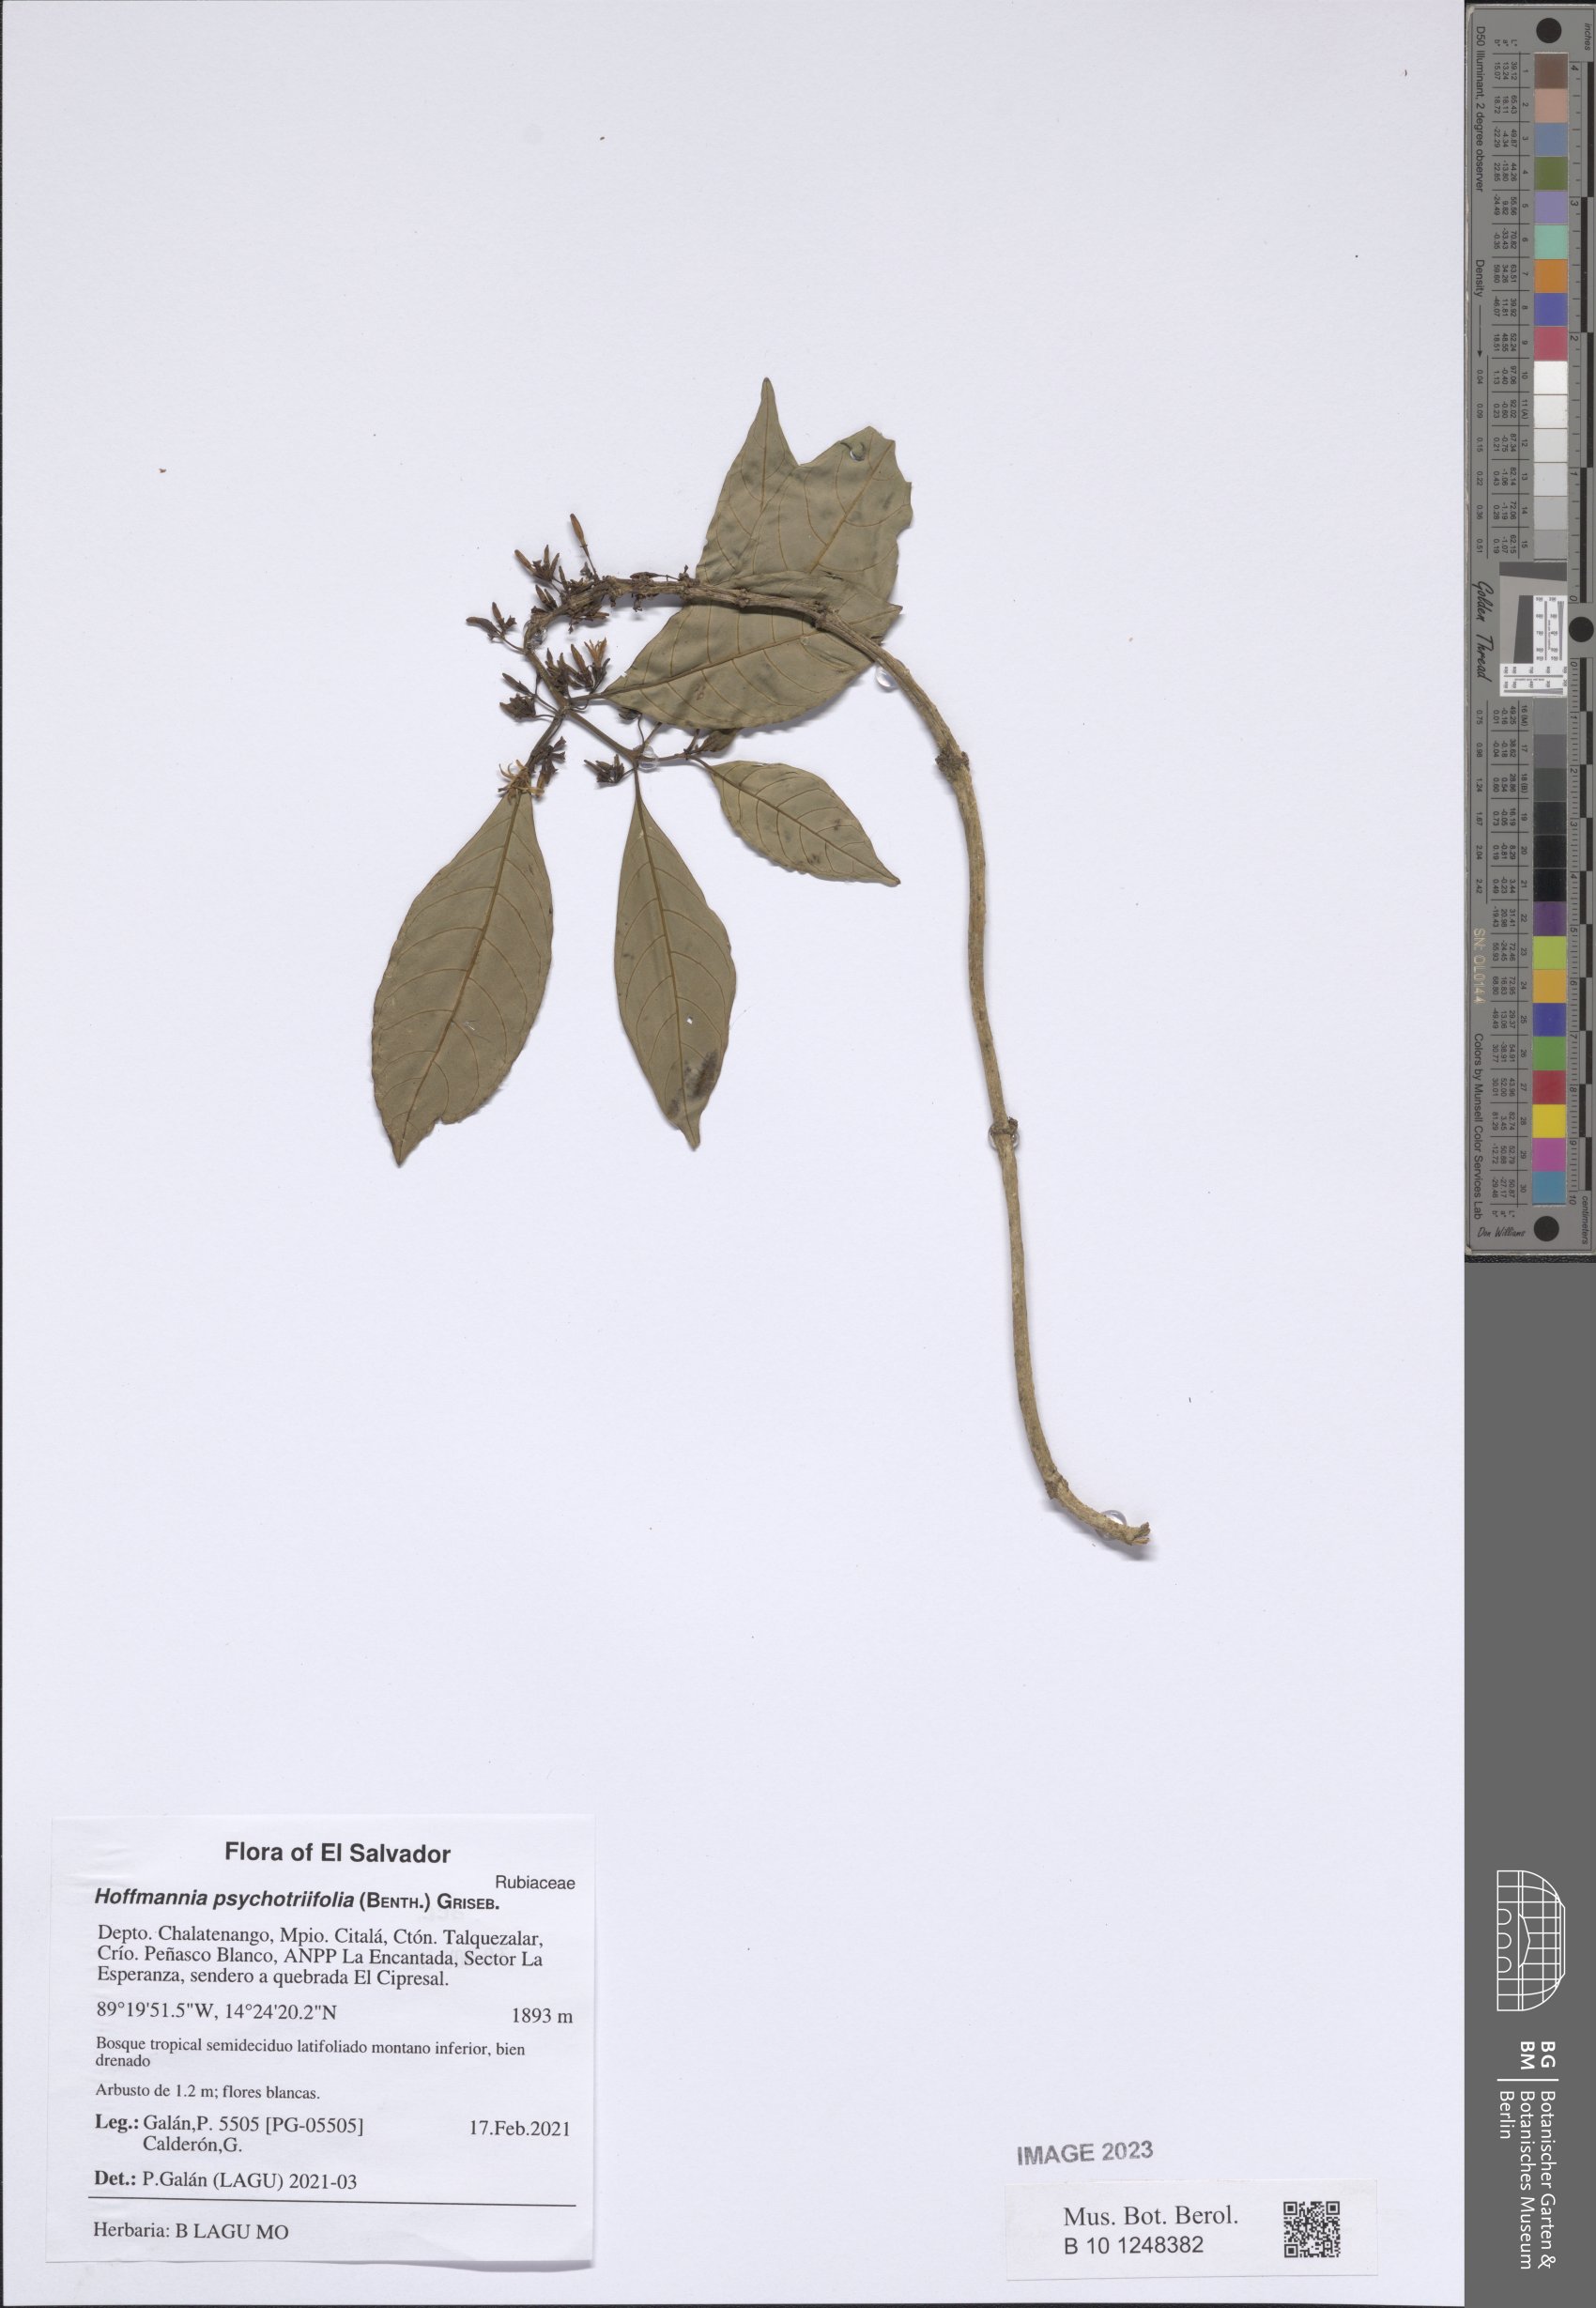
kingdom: Plantae
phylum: Tracheophyta
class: Magnoliopsida
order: Gentianales
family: Rubiaceae
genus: Hoffmannia
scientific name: Hoffmannia psychotriifolia
